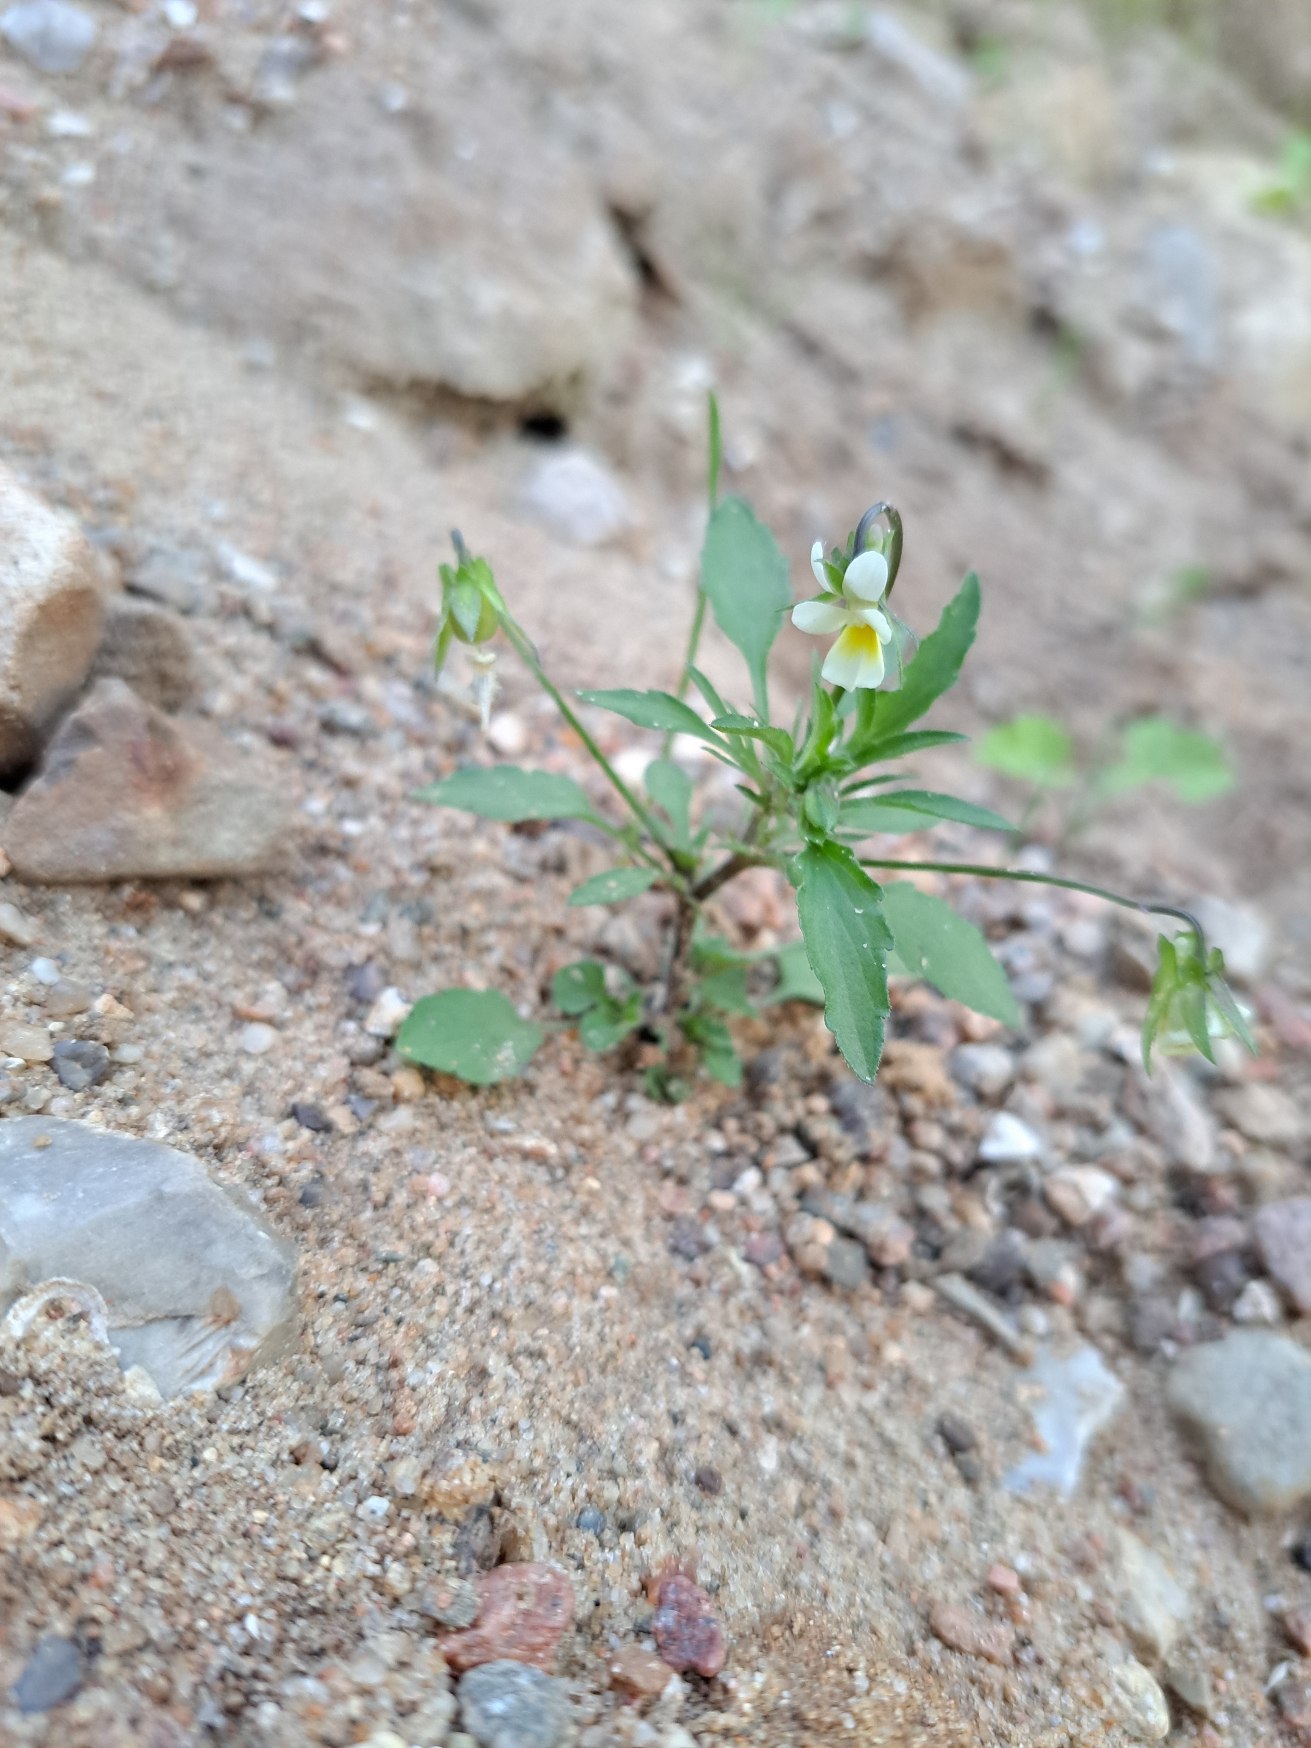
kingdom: Plantae
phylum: Tracheophyta
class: Magnoliopsida
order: Malpighiales
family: Violaceae
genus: Viola
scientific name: Viola arvensis
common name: Ager-stedmoderblomst
